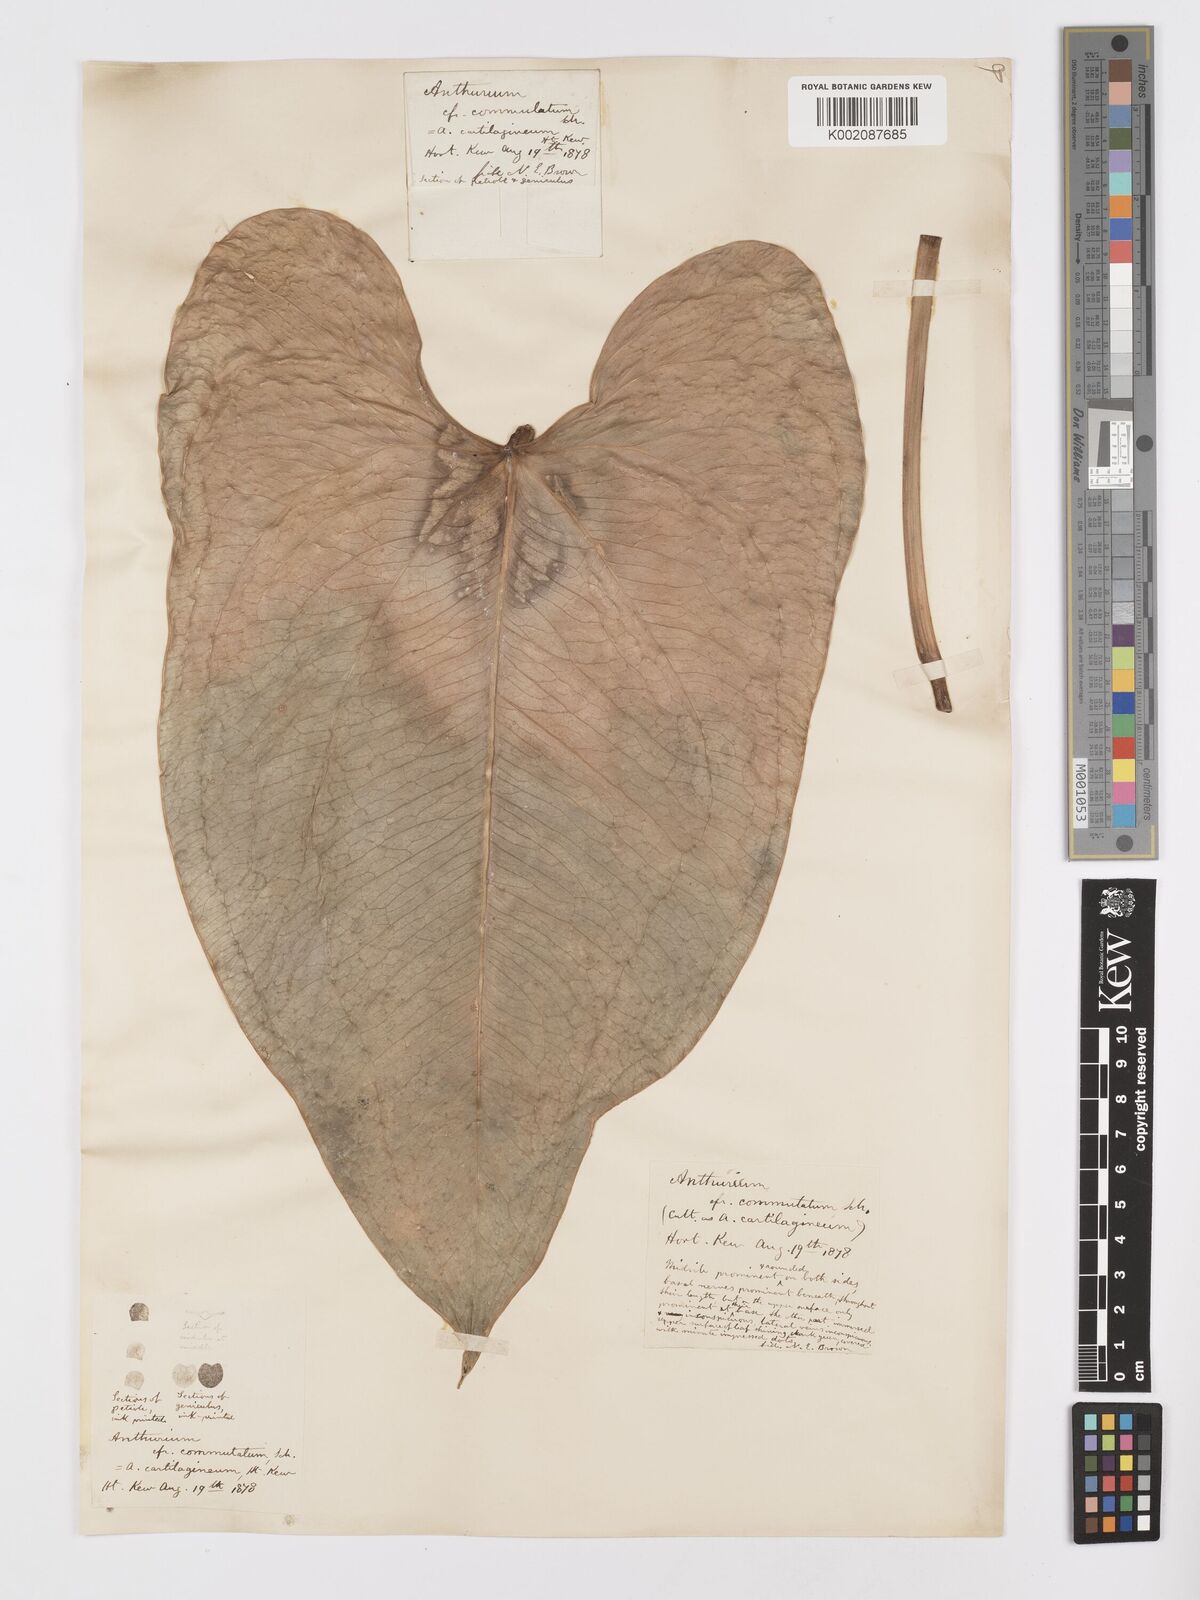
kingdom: Plantae
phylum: Tracheophyta
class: Liliopsida
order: Alismatales
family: Araceae
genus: Anthurium
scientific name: Anthurium cordatum
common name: Monkey tail
